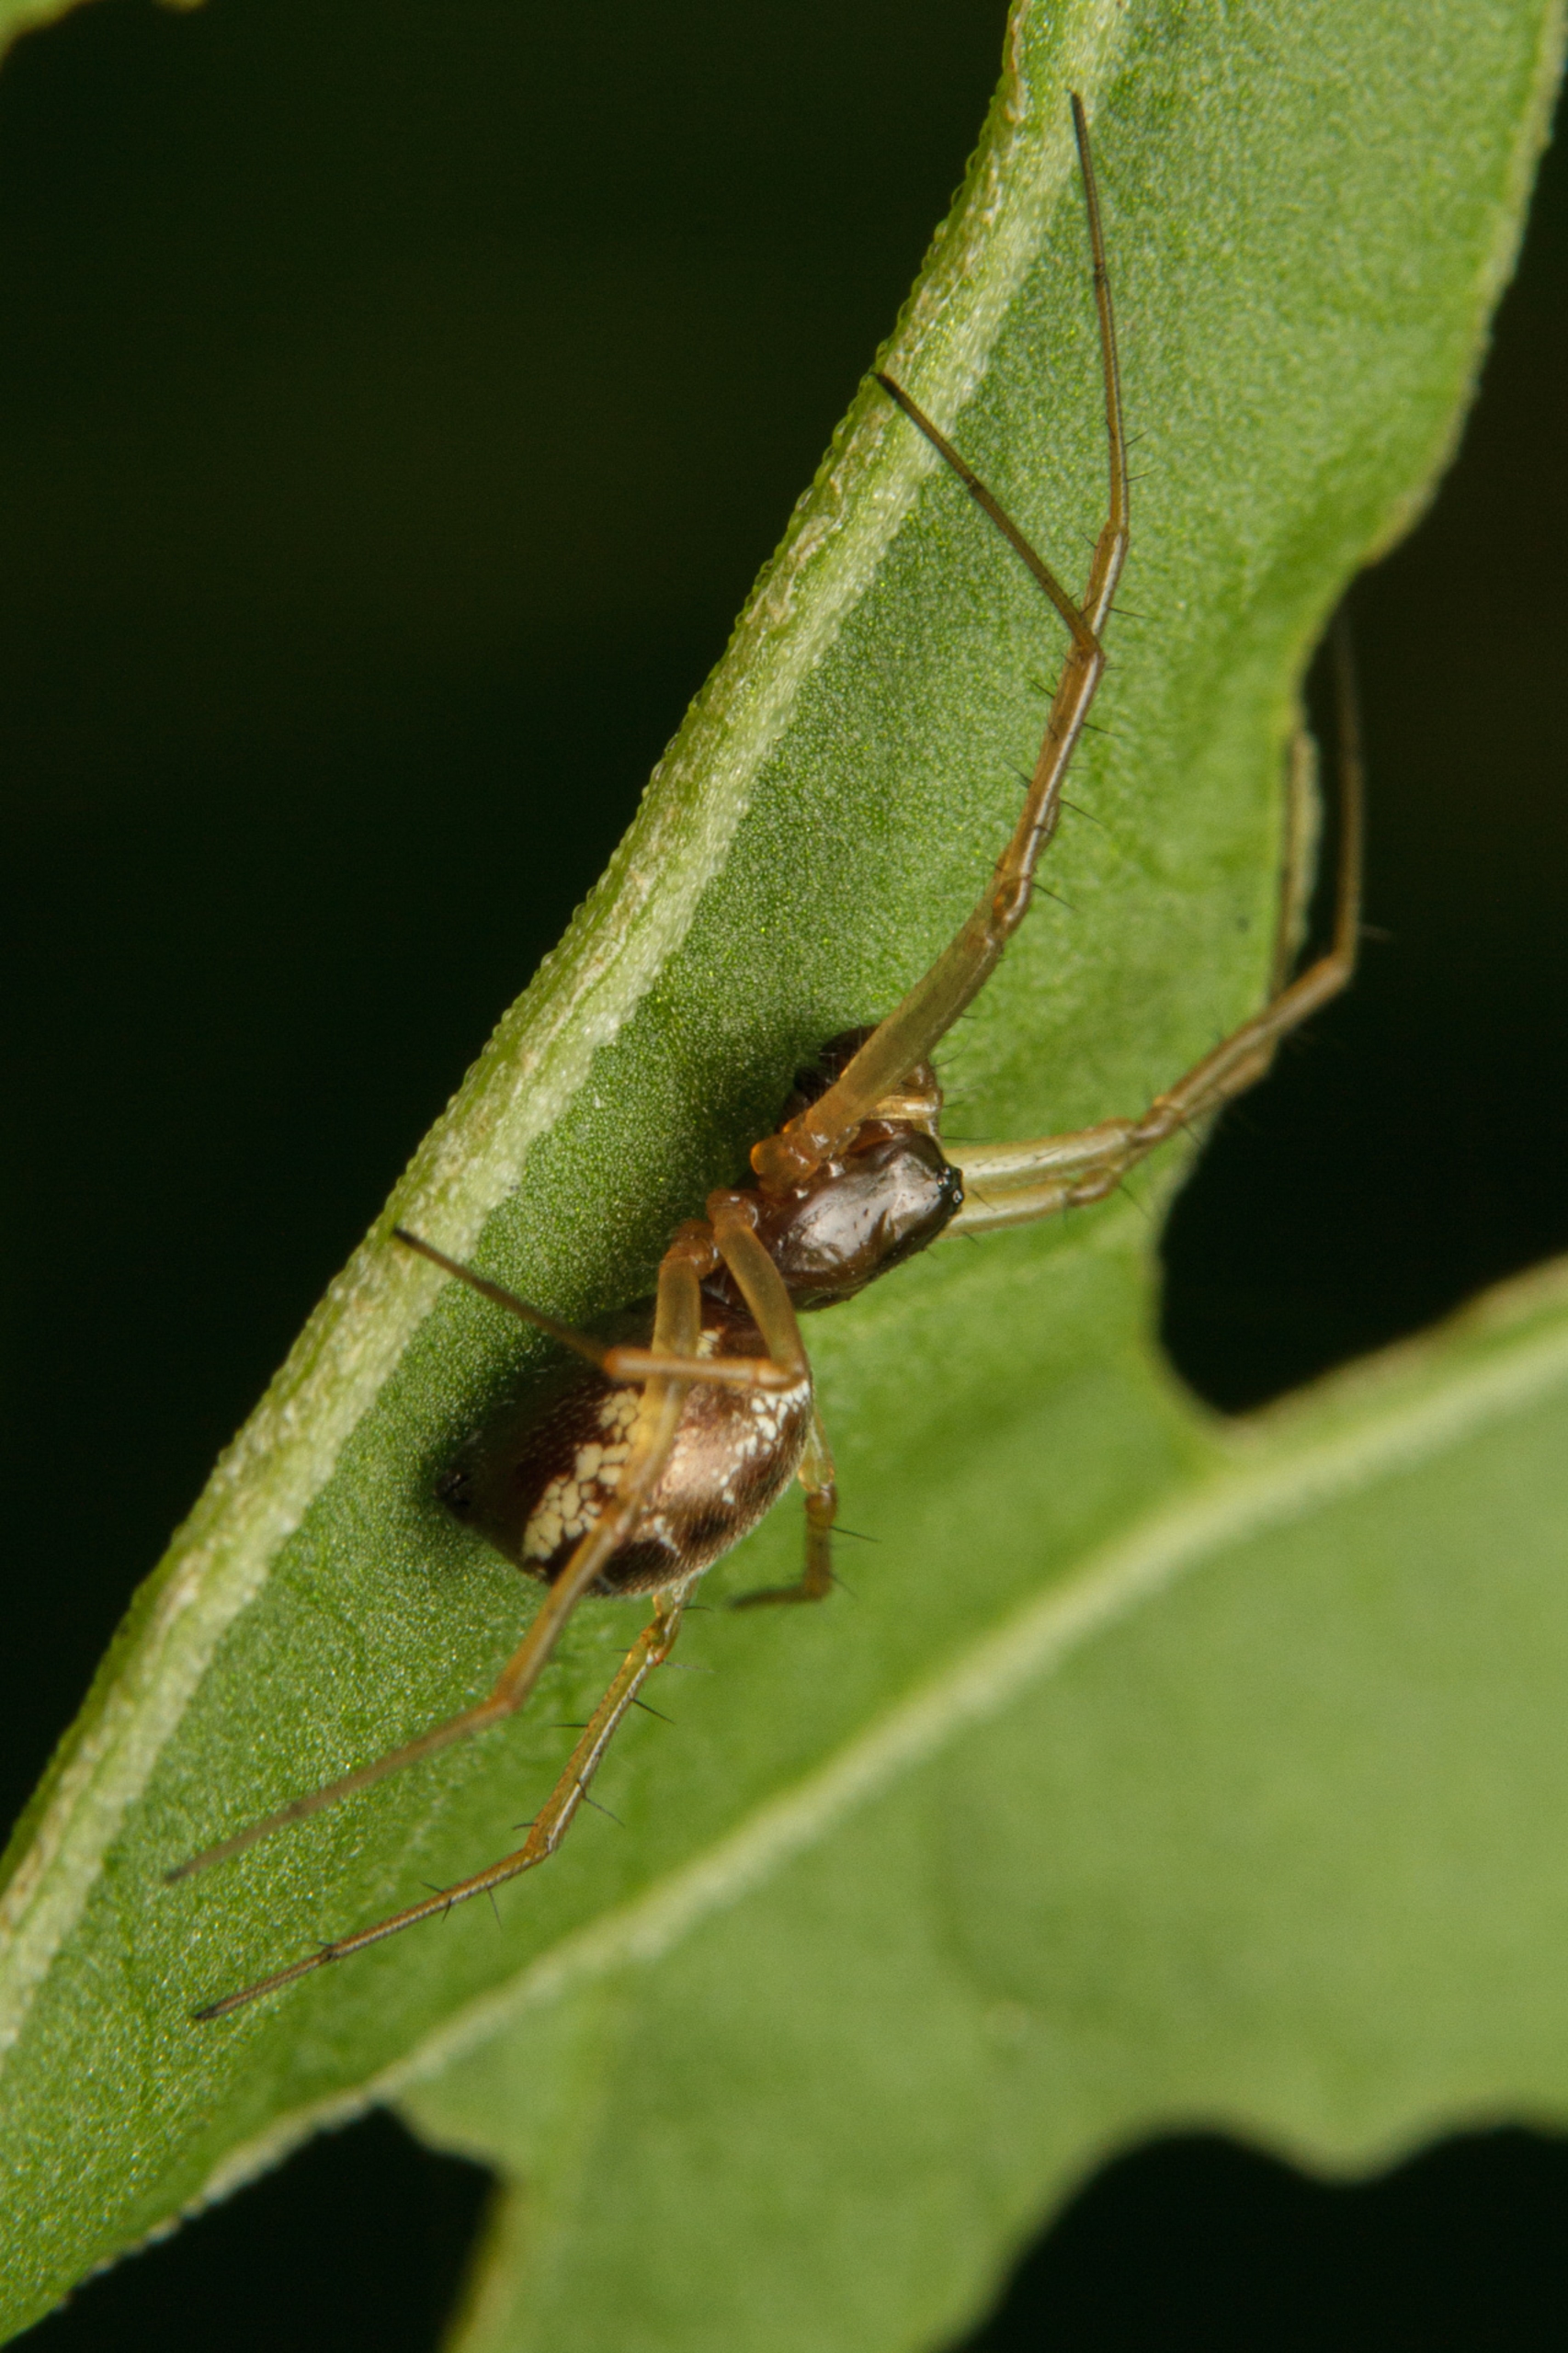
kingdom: Animalia
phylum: Arthropoda
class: Arachnida
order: Araneae
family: Linyphiidae
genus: Linyphia
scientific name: Linyphia hortensis
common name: Skovbaldakinspinder
